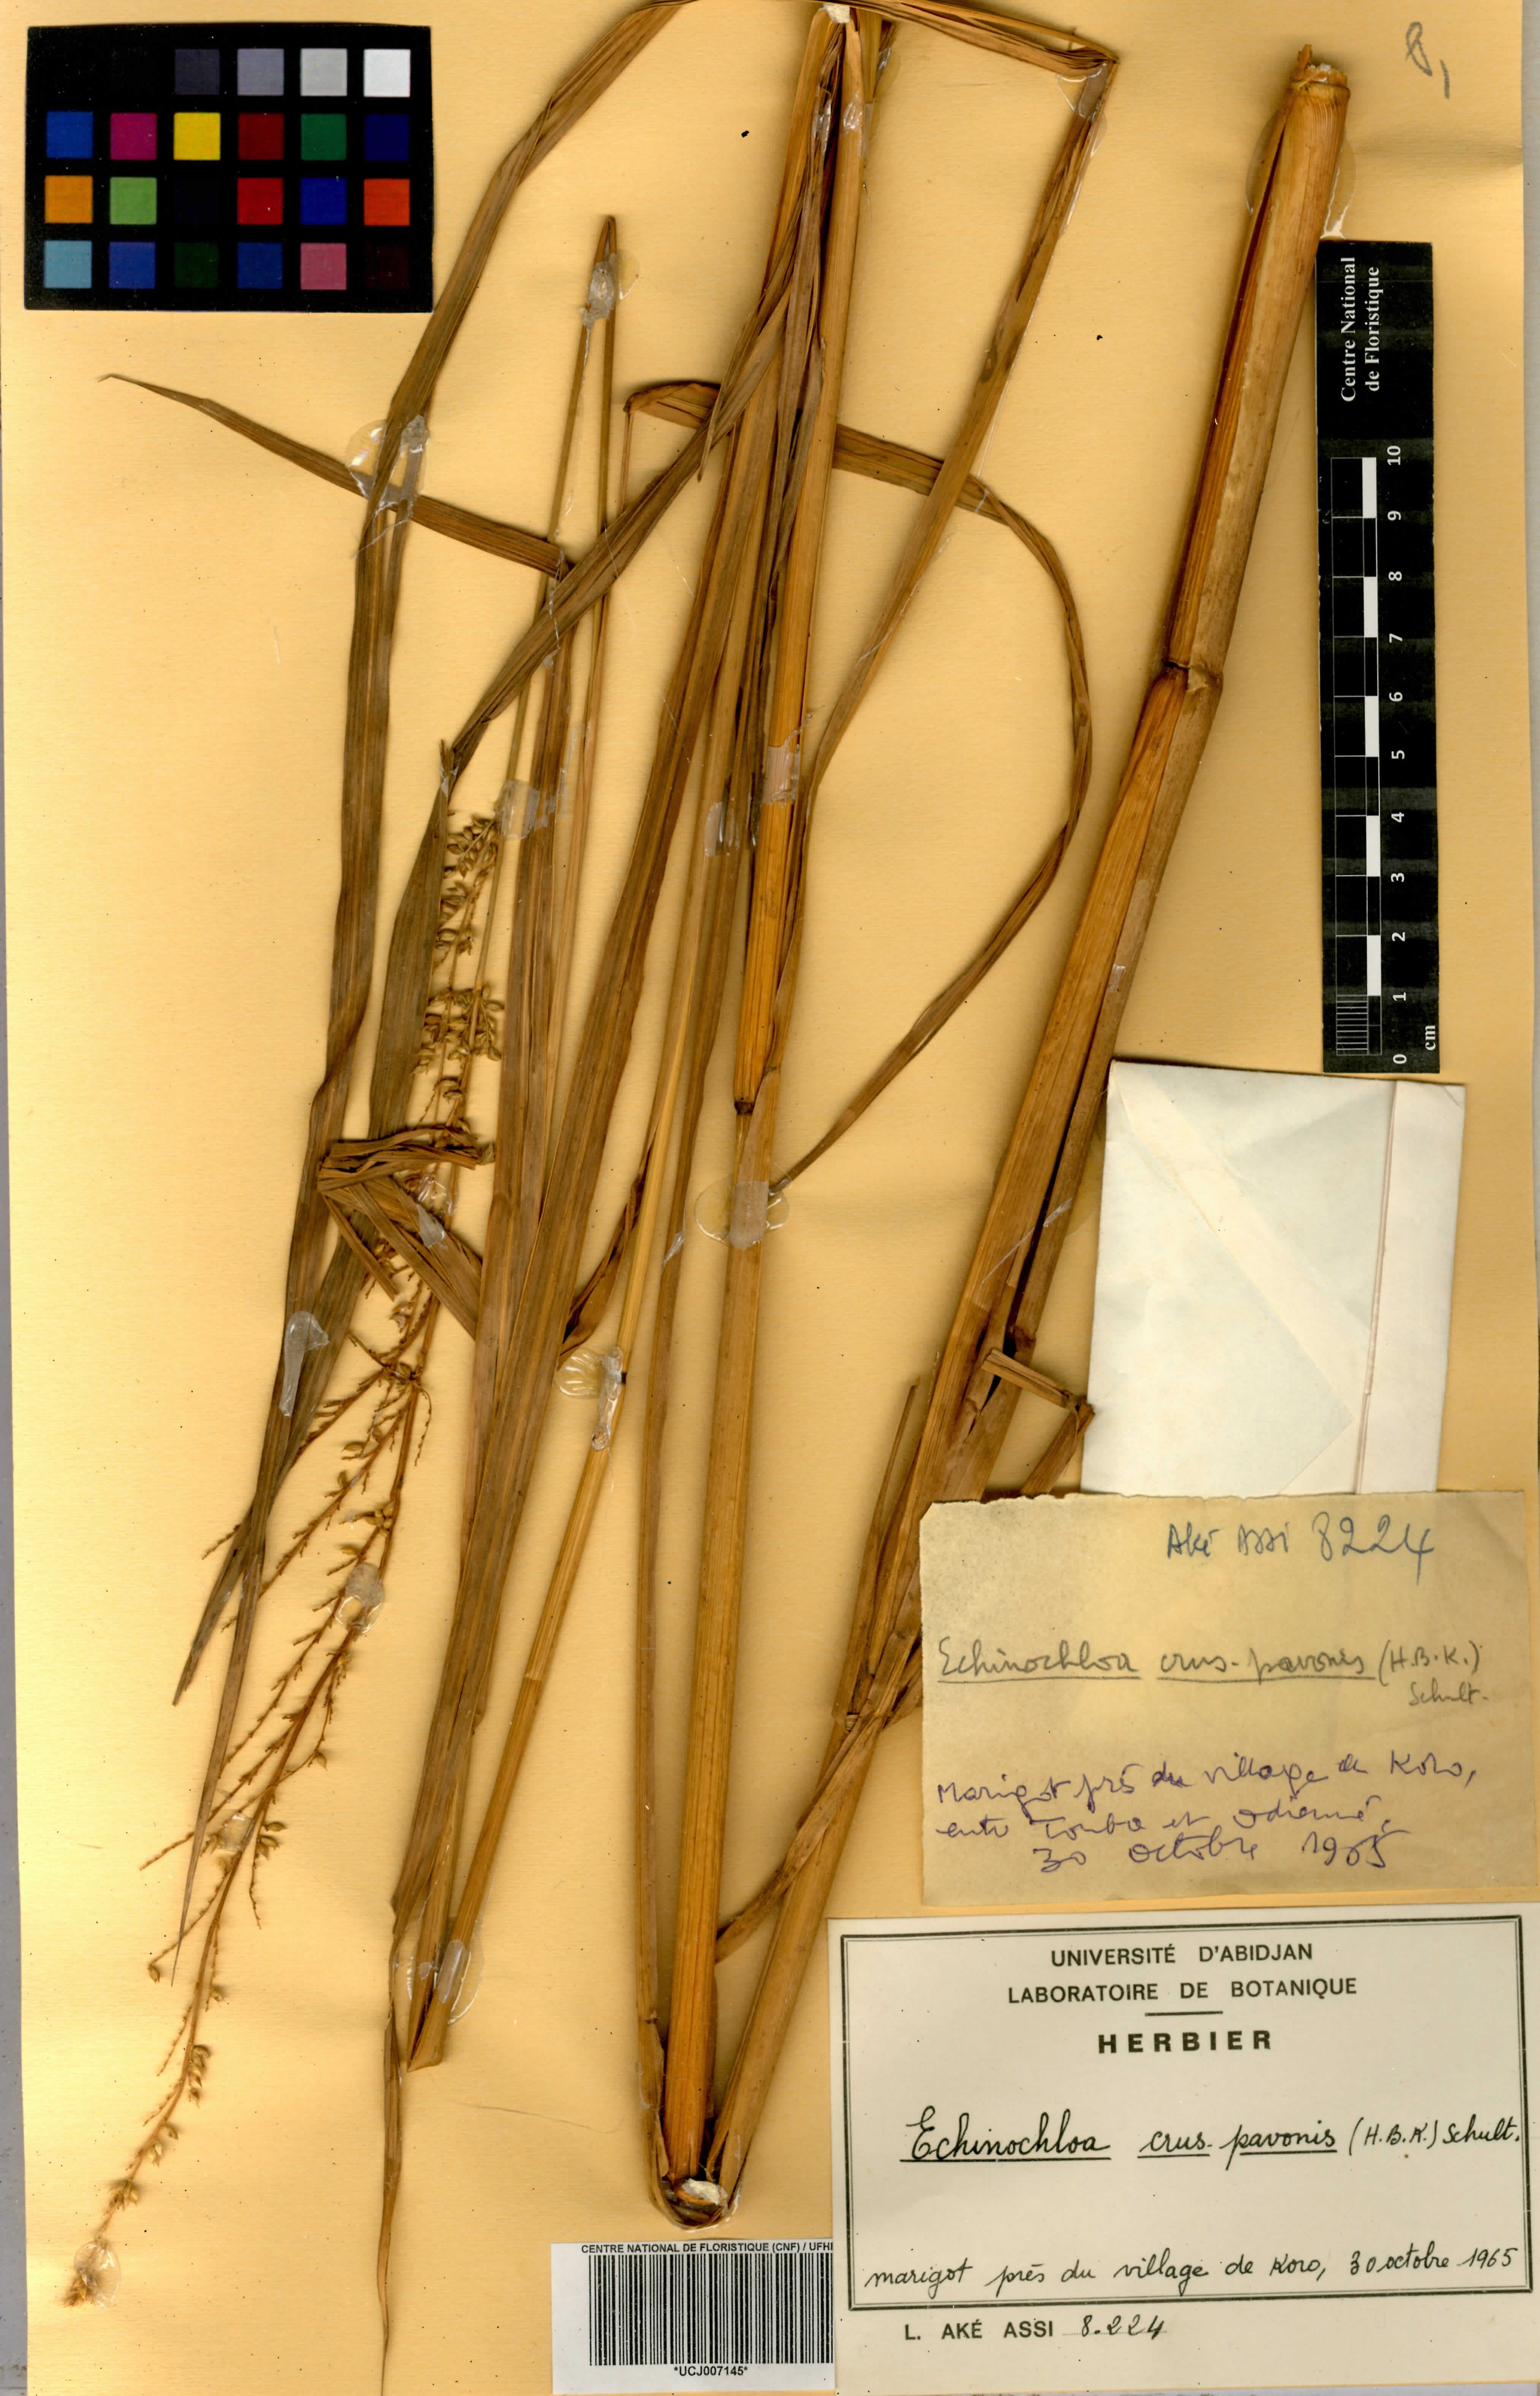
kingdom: Plantae
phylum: Tracheophyta
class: Liliopsida
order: Poales
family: Poaceae
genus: Echinochloa
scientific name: Echinochloa crus-pavonis
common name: Gulf cockspur grass
